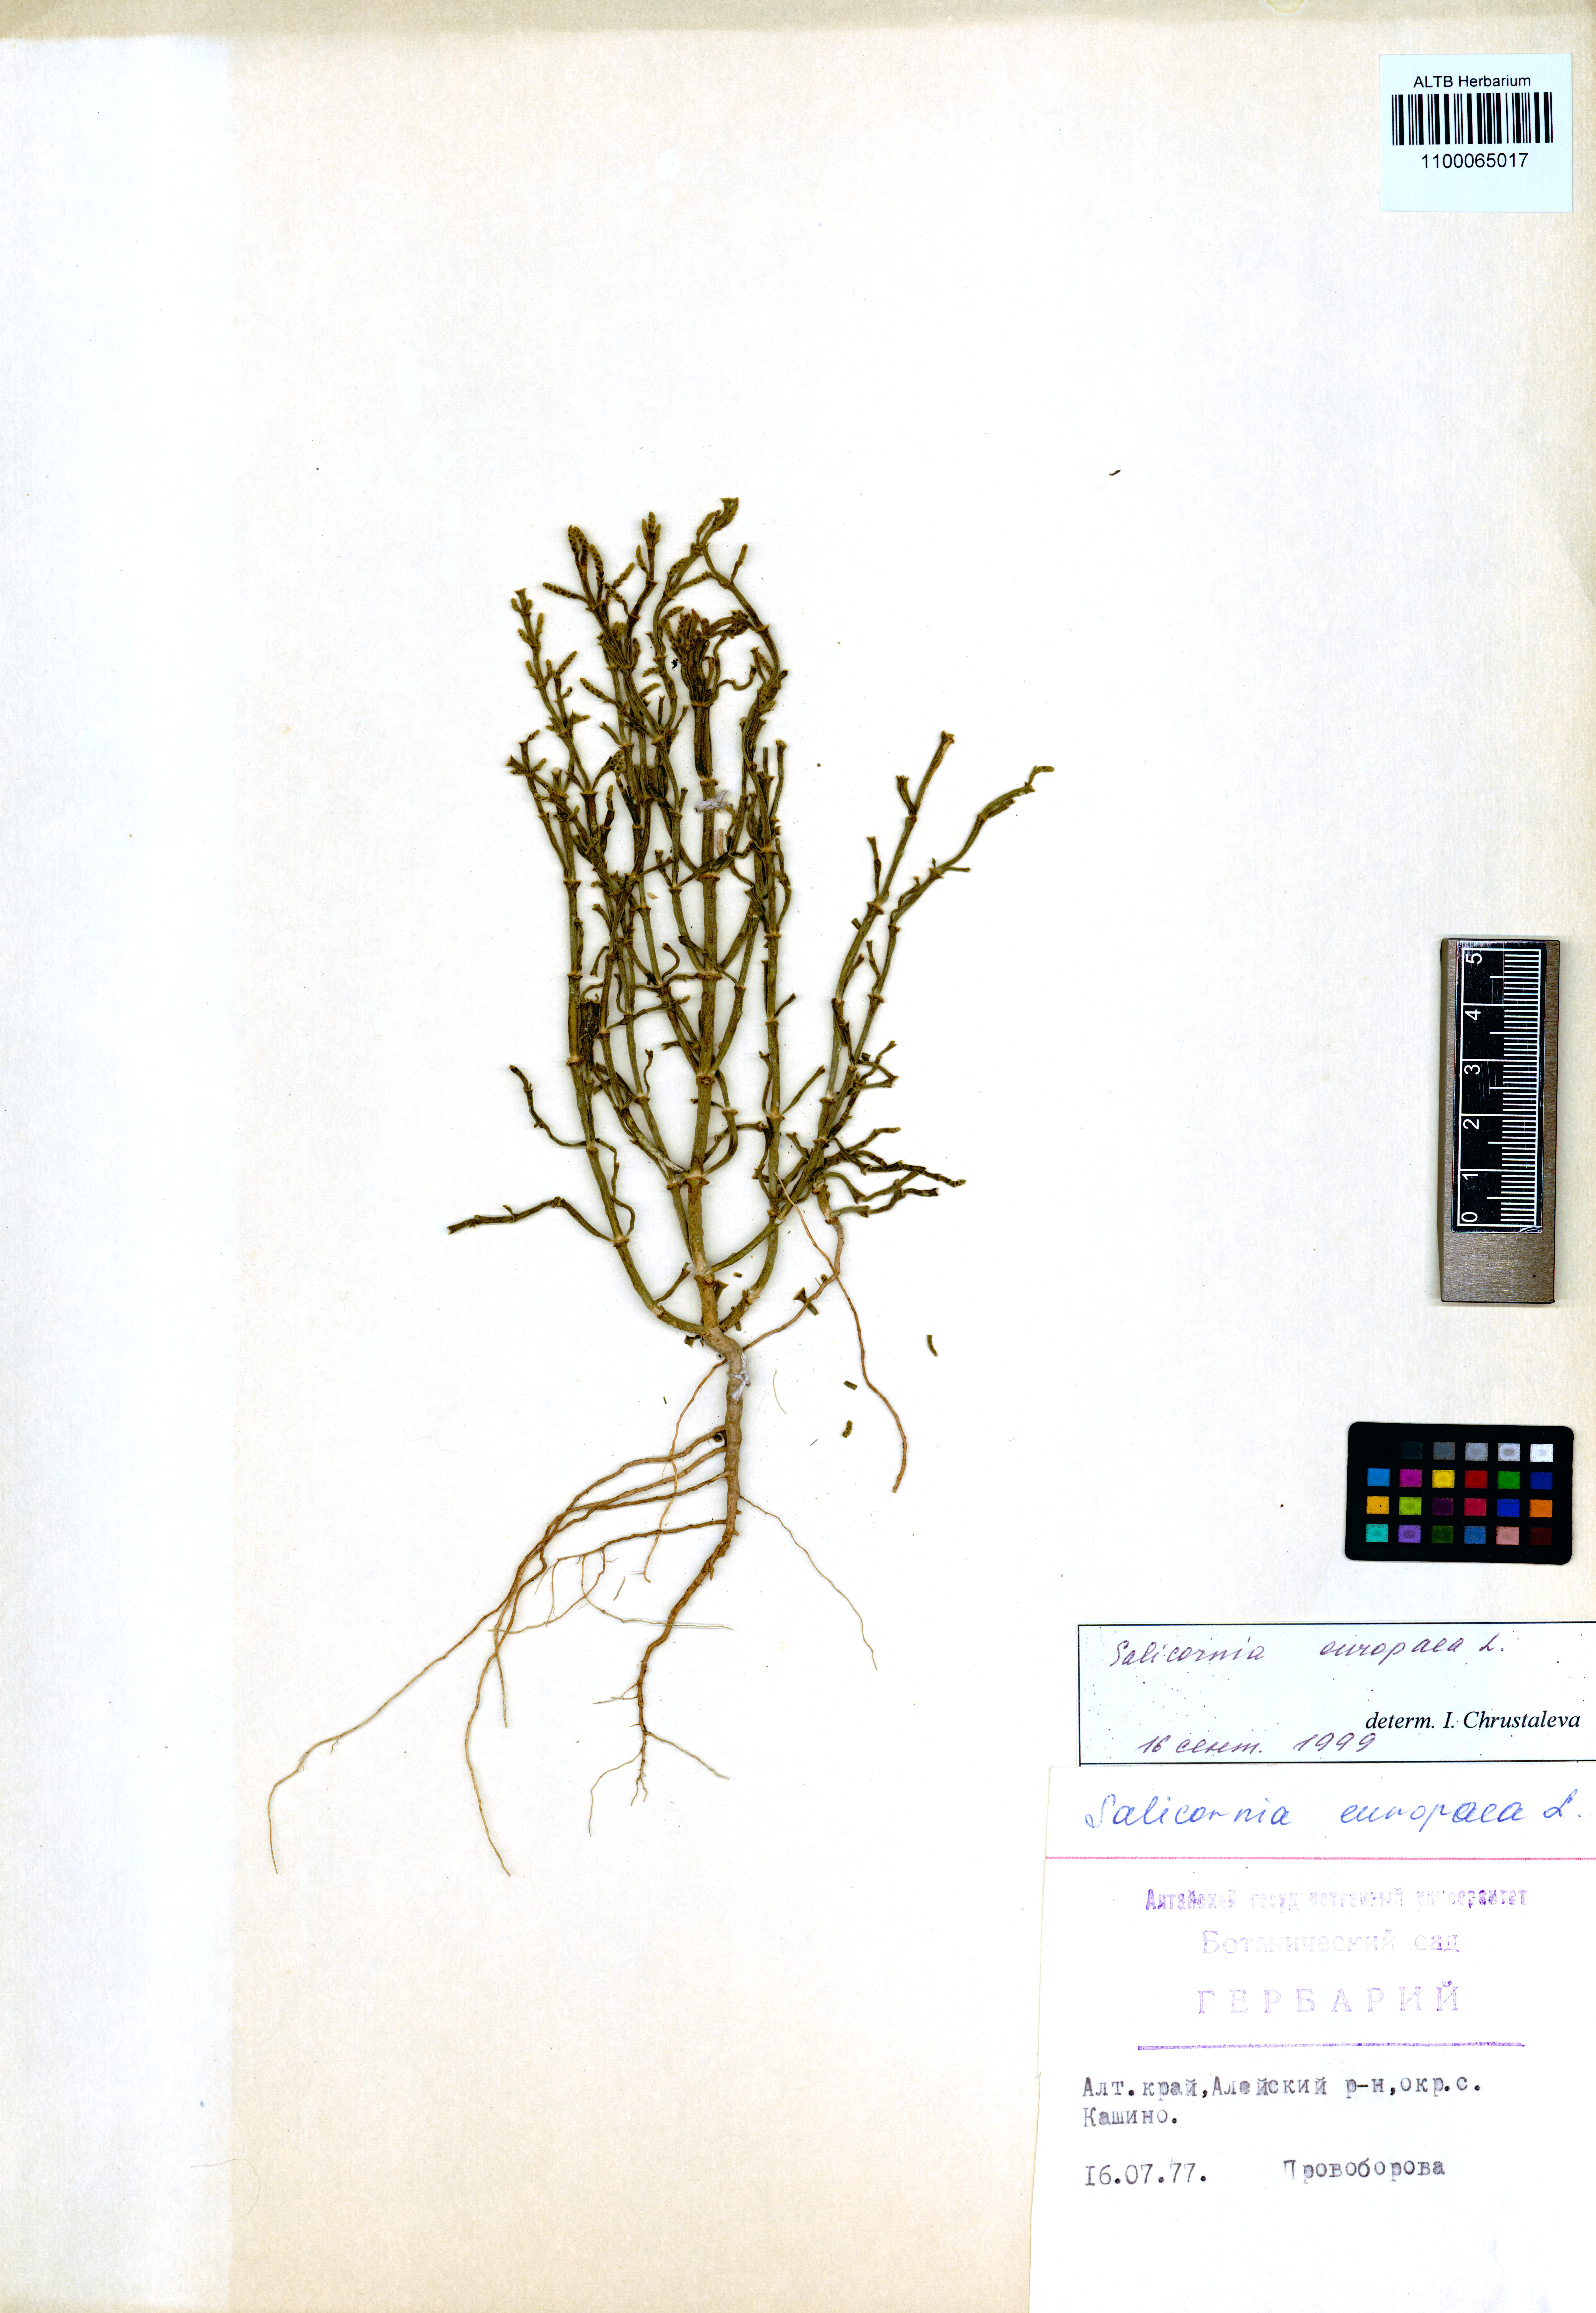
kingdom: Plantae
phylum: Tracheophyta
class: Magnoliopsida
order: Caryophyllales
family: Amaranthaceae
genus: Salicornia
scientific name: Salicornia europaea
